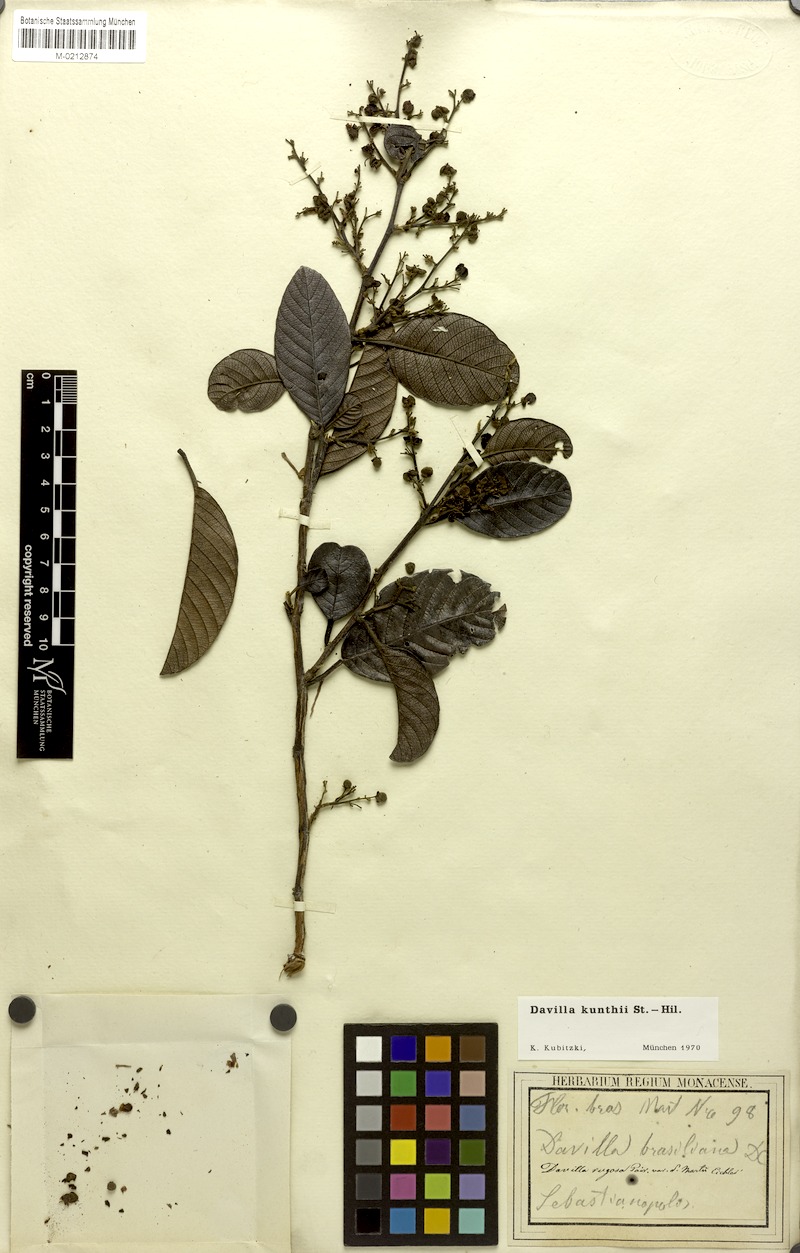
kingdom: Plantae
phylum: Tracheophyta
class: Magnoliopsida
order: Dilleniales
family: Dilleniaceae
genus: Davilla
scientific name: Davilla kunthii
